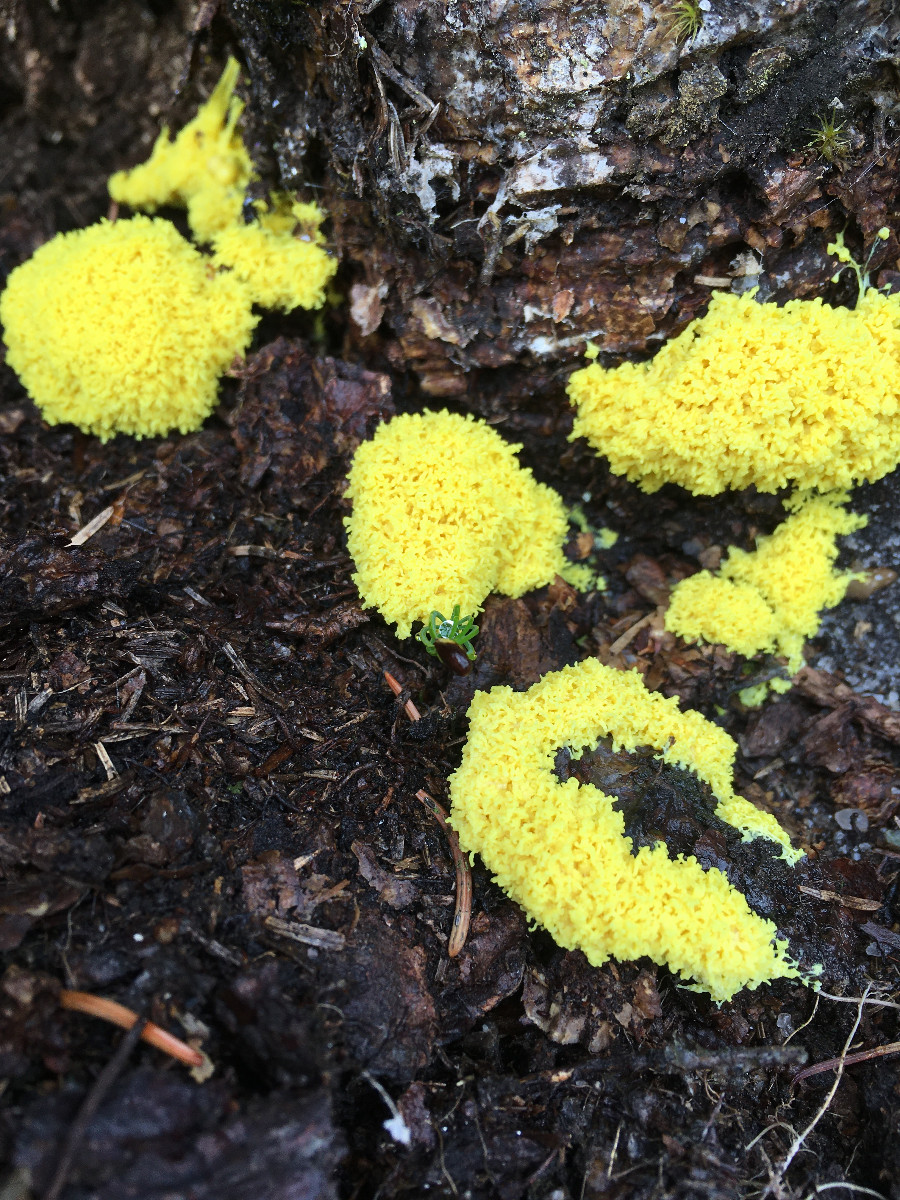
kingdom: Protozoa
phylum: Mycetozoa
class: Myxomycetes
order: Physarales
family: Physaraceae
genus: Fuligo
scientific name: Fuligo septica
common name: gul troldsmør
